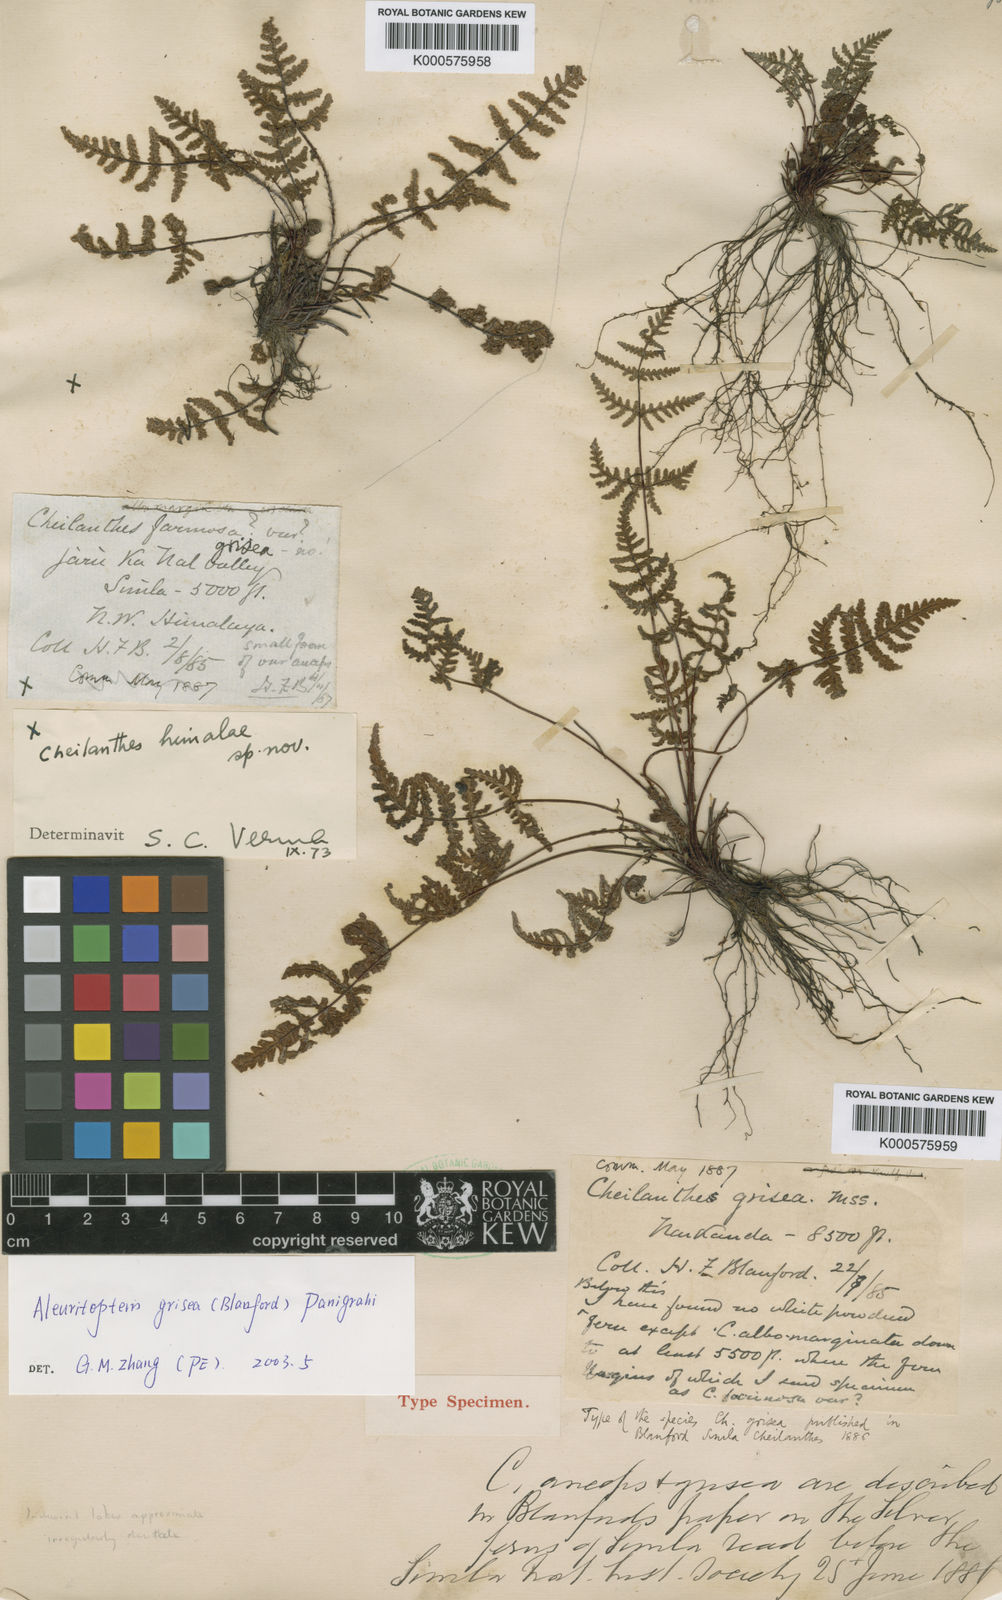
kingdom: Plantae
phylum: Tracheophyta
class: Polypodiopsida
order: Polypodiales
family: Pteridaceae
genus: Aleuritopteris
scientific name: Aleuritopteris formosana
